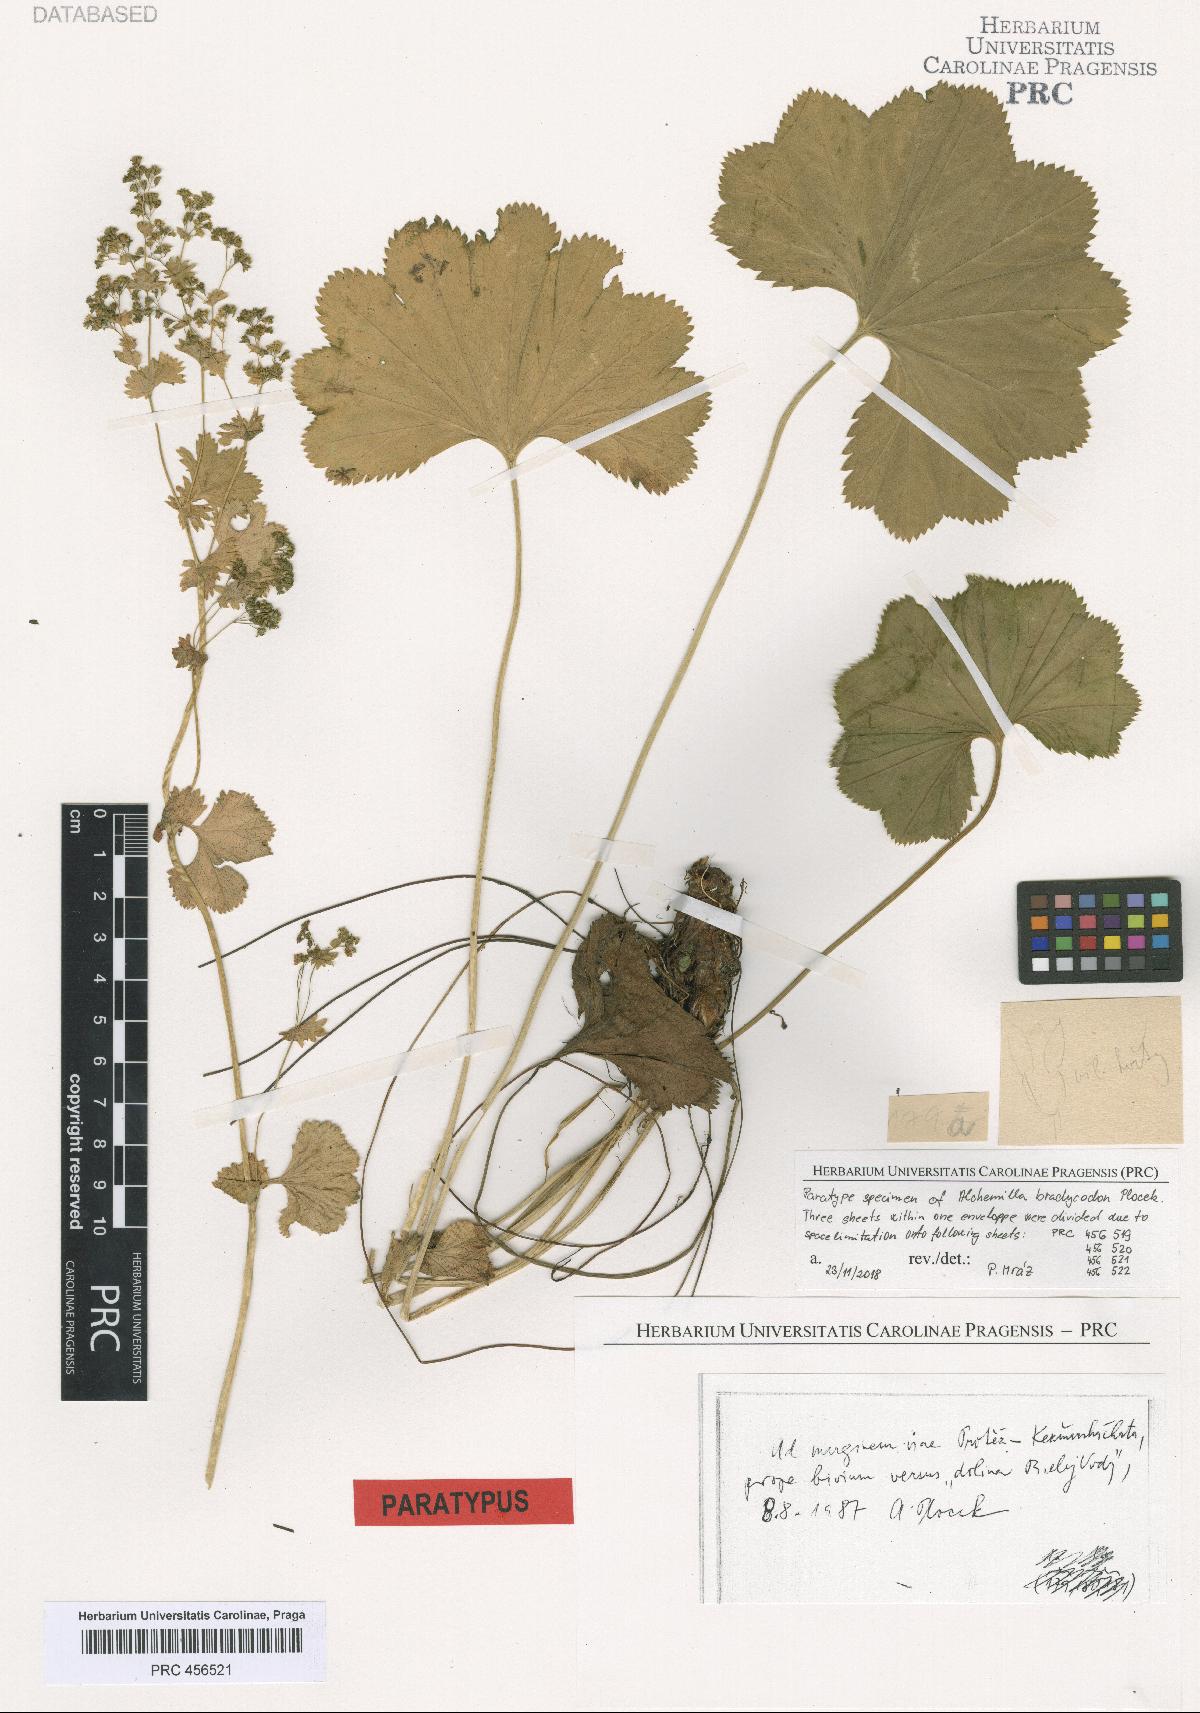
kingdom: Plantae
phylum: Tracheophyta
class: Magnoliopsida
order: Rosales
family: Rosaceae
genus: Alchemilla
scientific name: Alchemilla brachycodon
